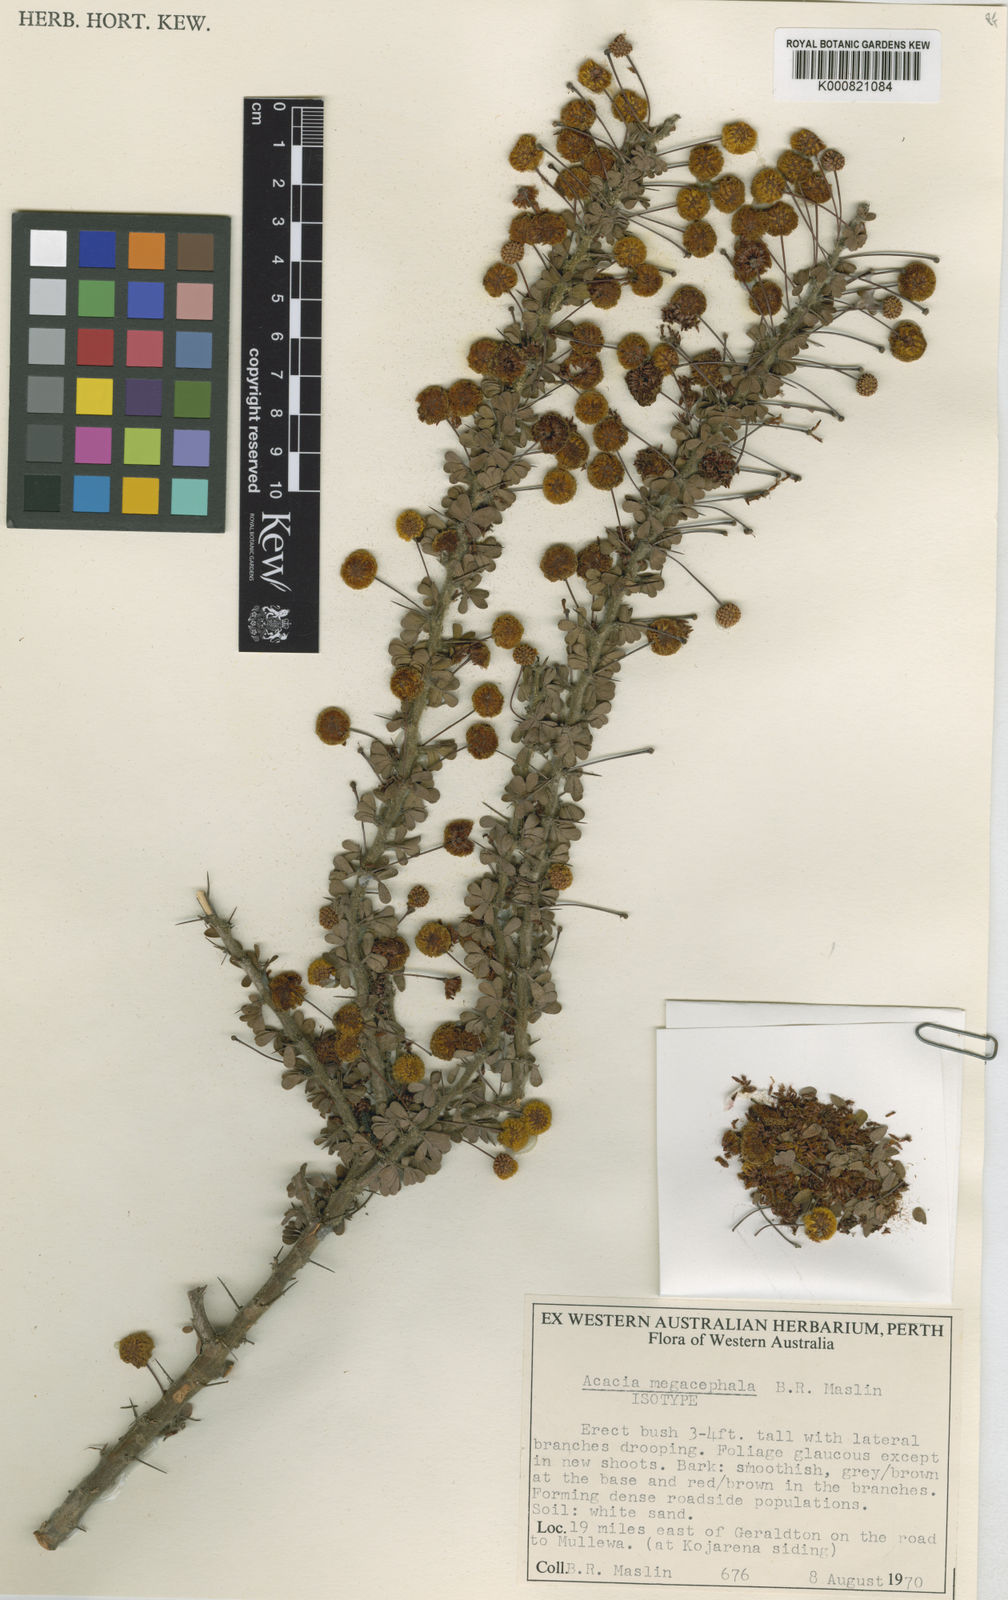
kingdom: Plantae
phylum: Tracheophyta
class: Magnoliopsida
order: Fabales
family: Fabaceae
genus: Acacia
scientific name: Acacia megacephala
